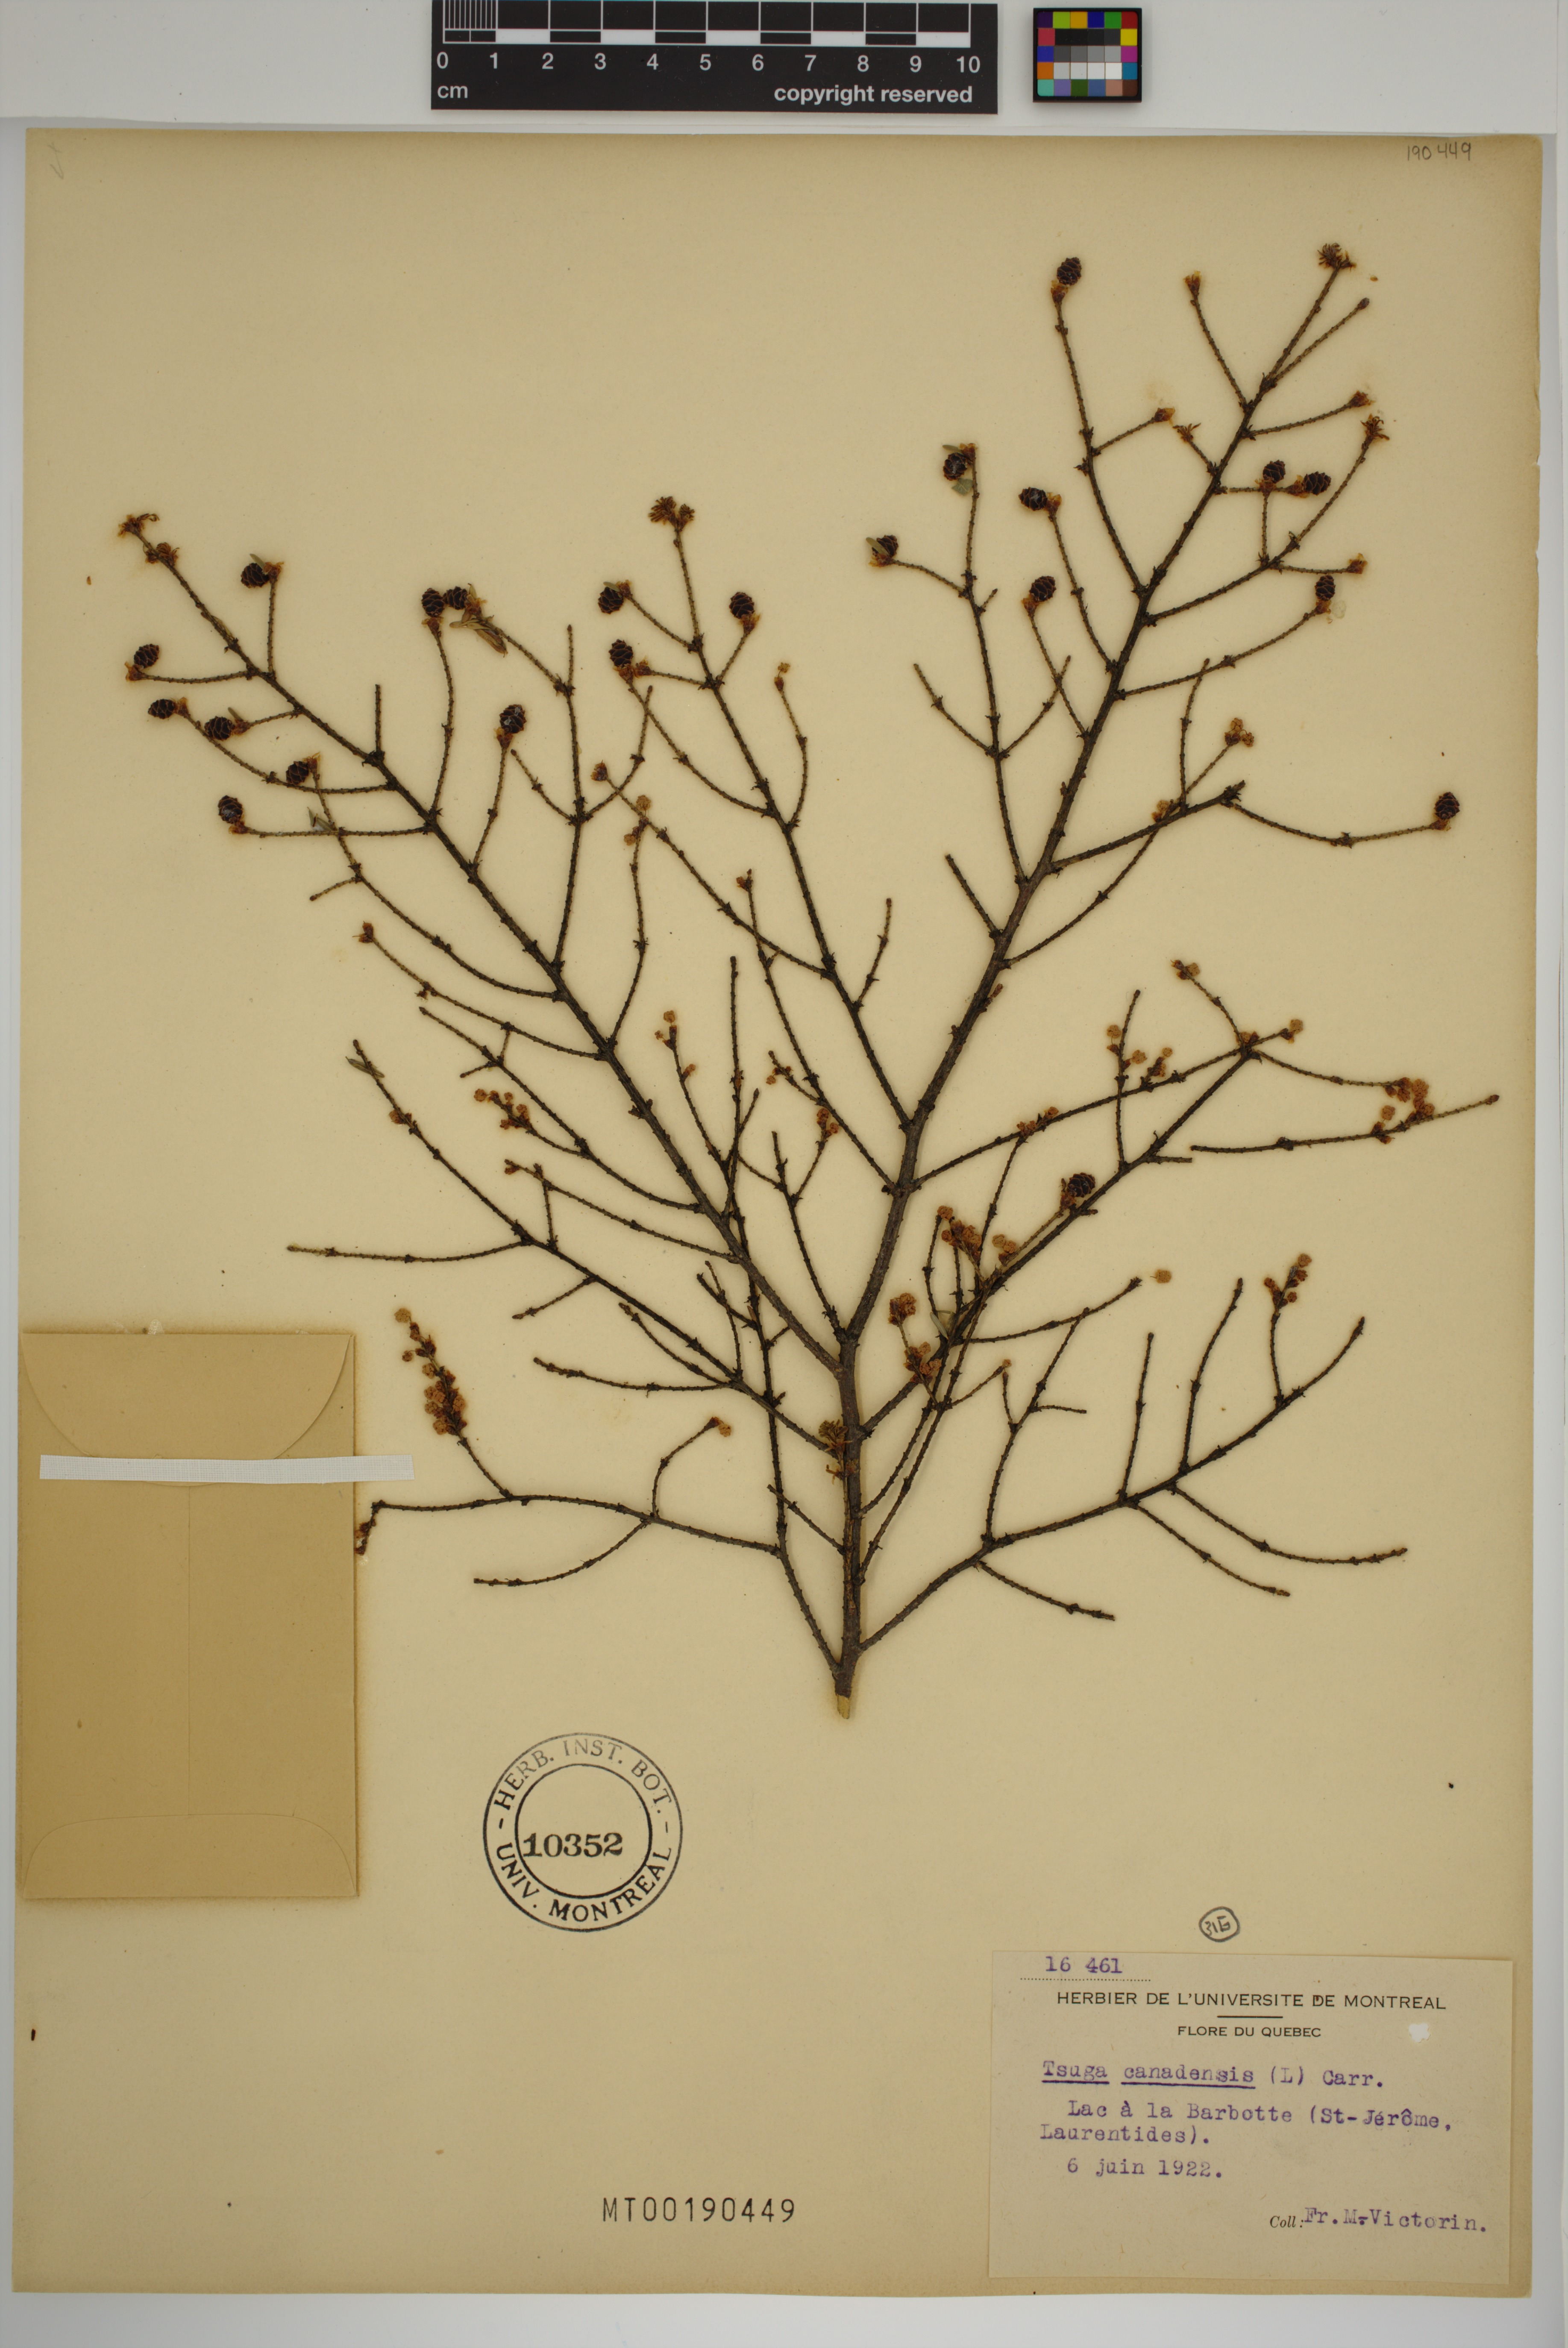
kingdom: Plantae
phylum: Tracheophyta
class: Pinopsida
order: Pinales
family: Pinaceae
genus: Tsuga
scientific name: Tsuga canadensis
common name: Eastern hemlock
